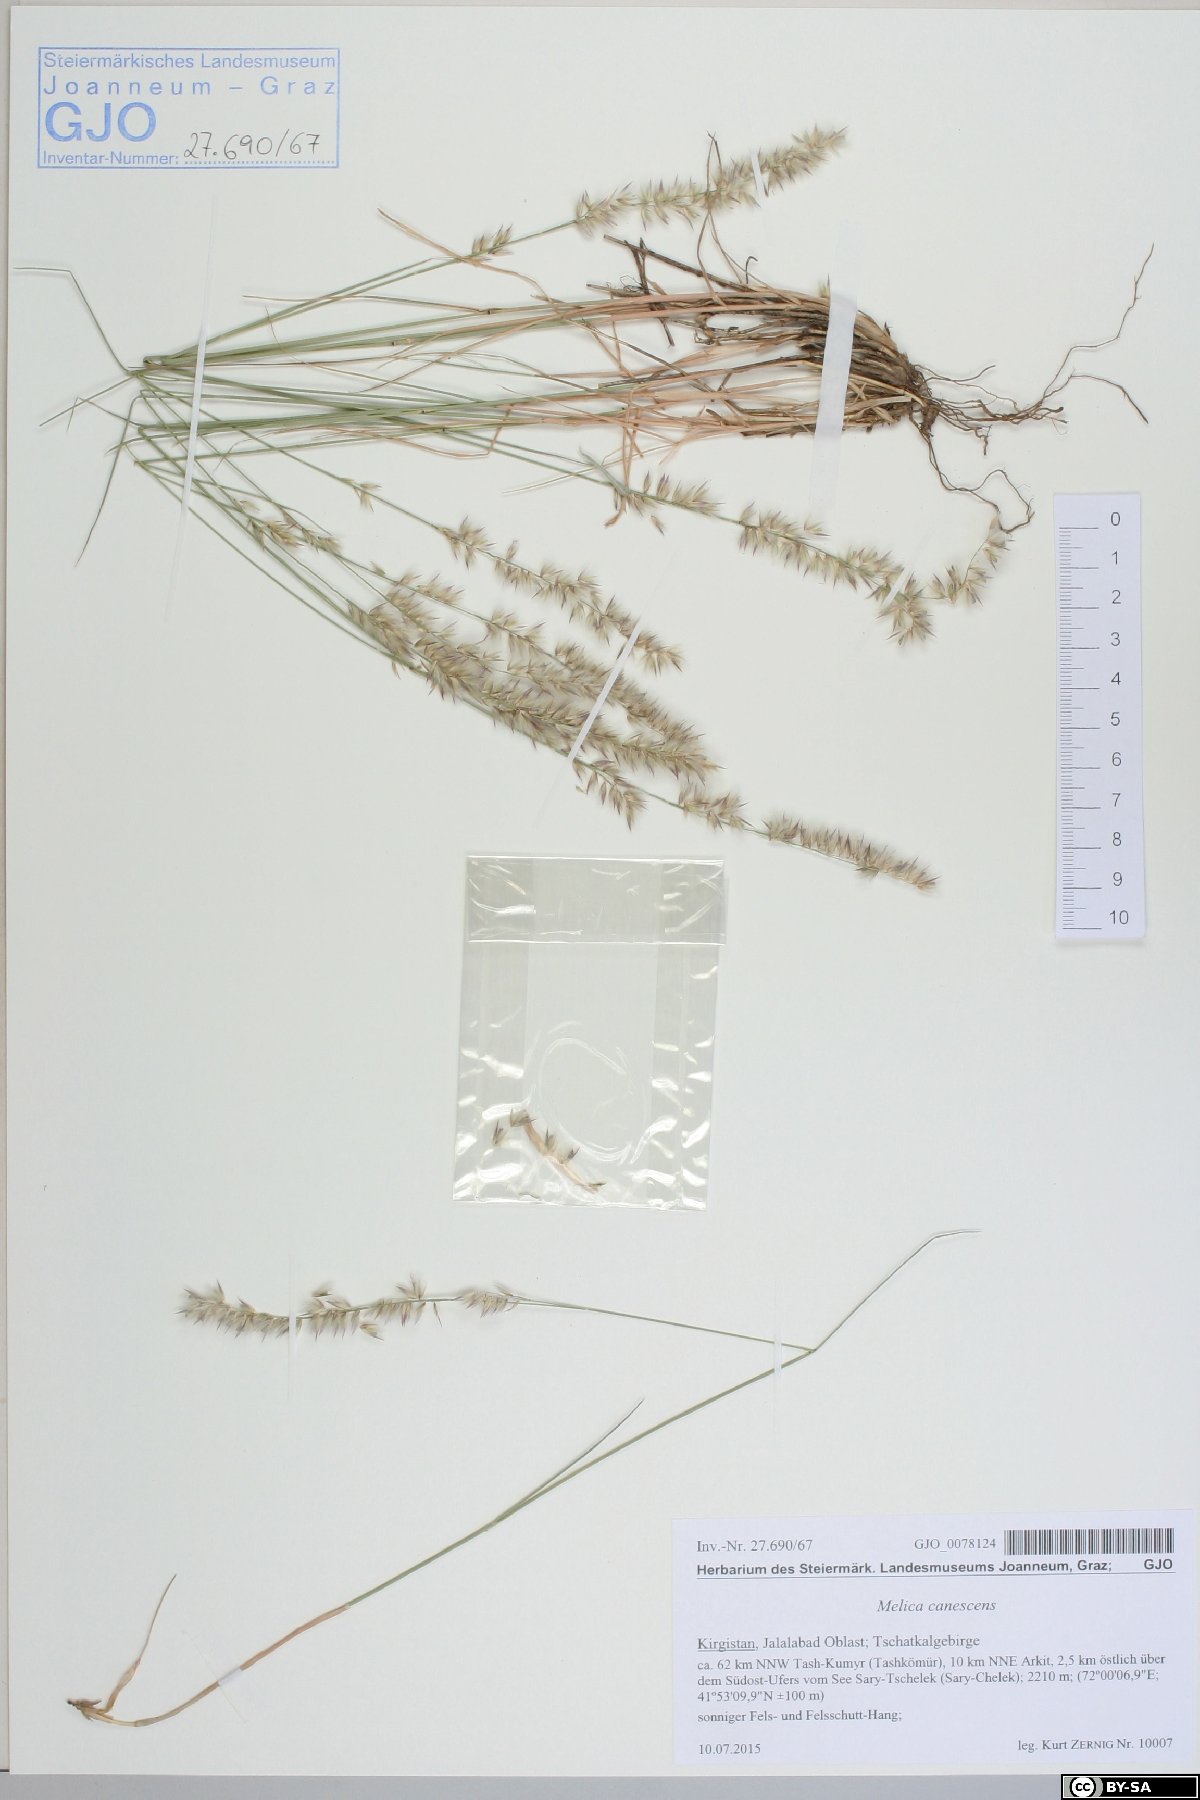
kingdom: Plantae
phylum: Tracheophyta
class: Liliopsida
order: Poales
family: Poaceae
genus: Melica
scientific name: Melica persica
